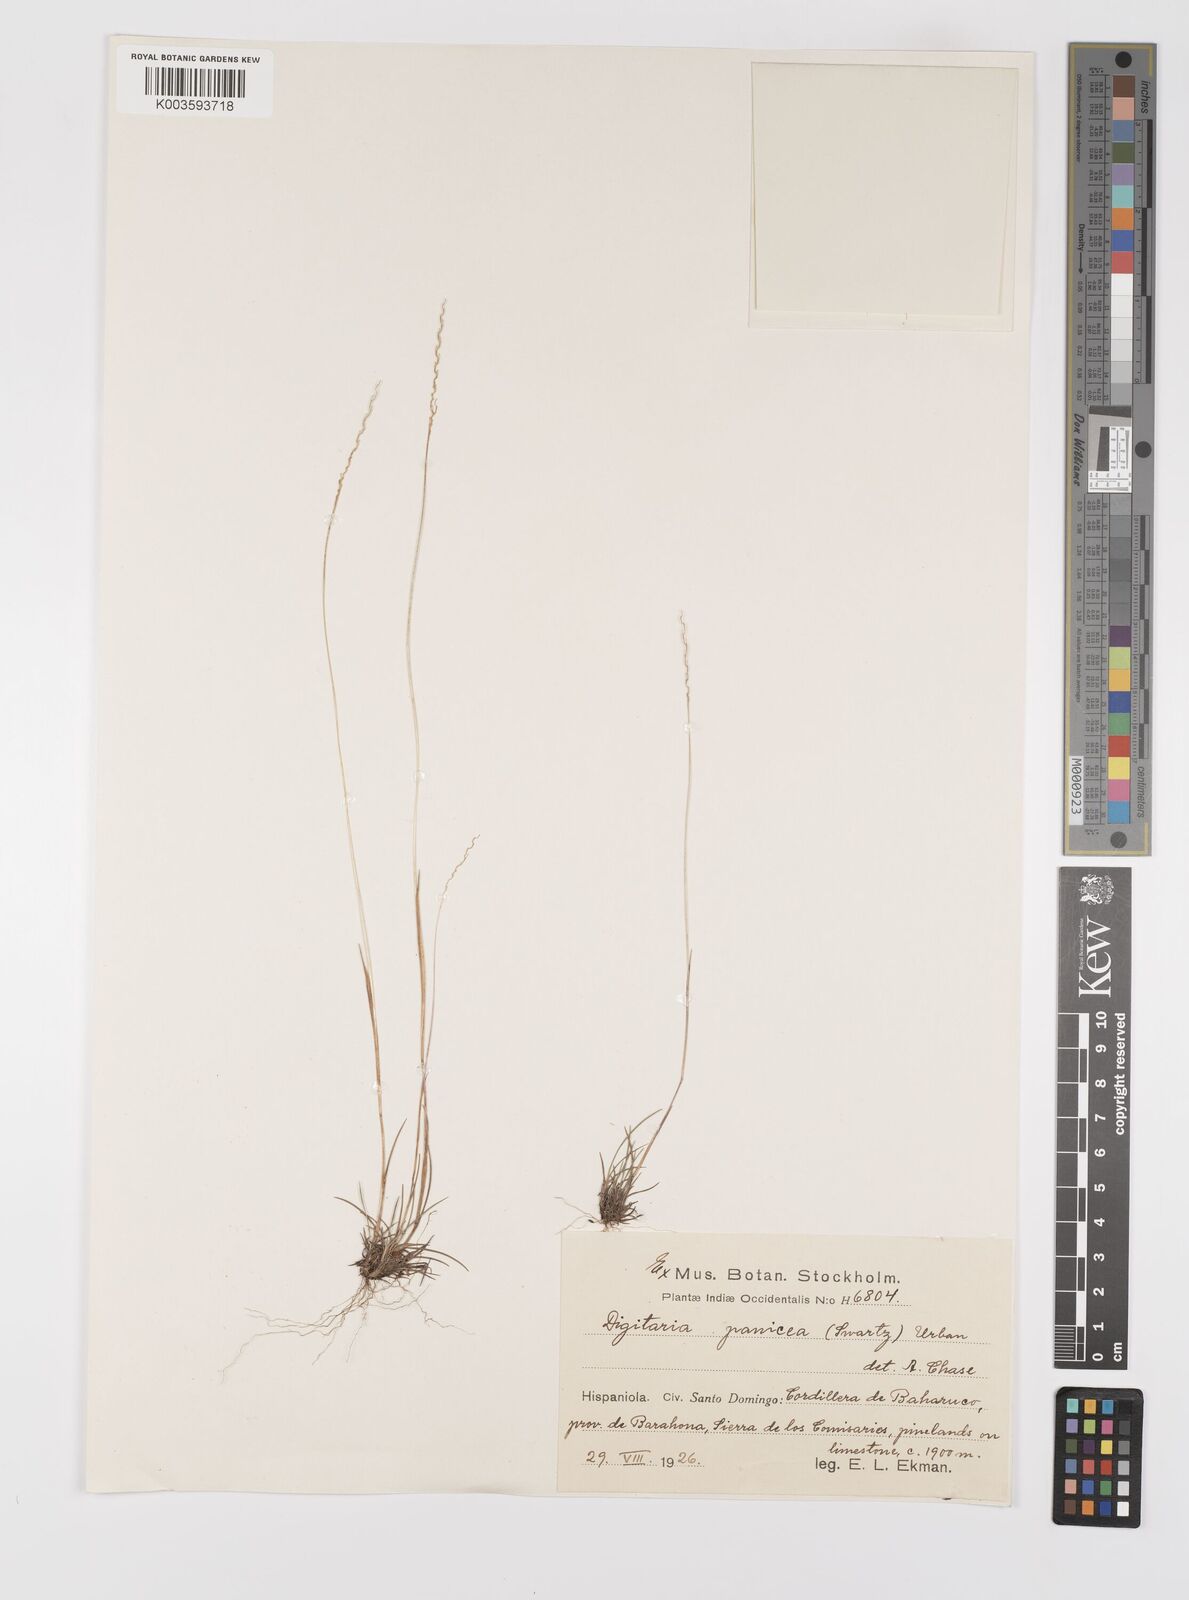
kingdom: Plantae
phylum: Tracheophyta
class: Liliopsida
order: Poales
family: Poaceae
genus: Digitaria
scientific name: Digitaria villosa
